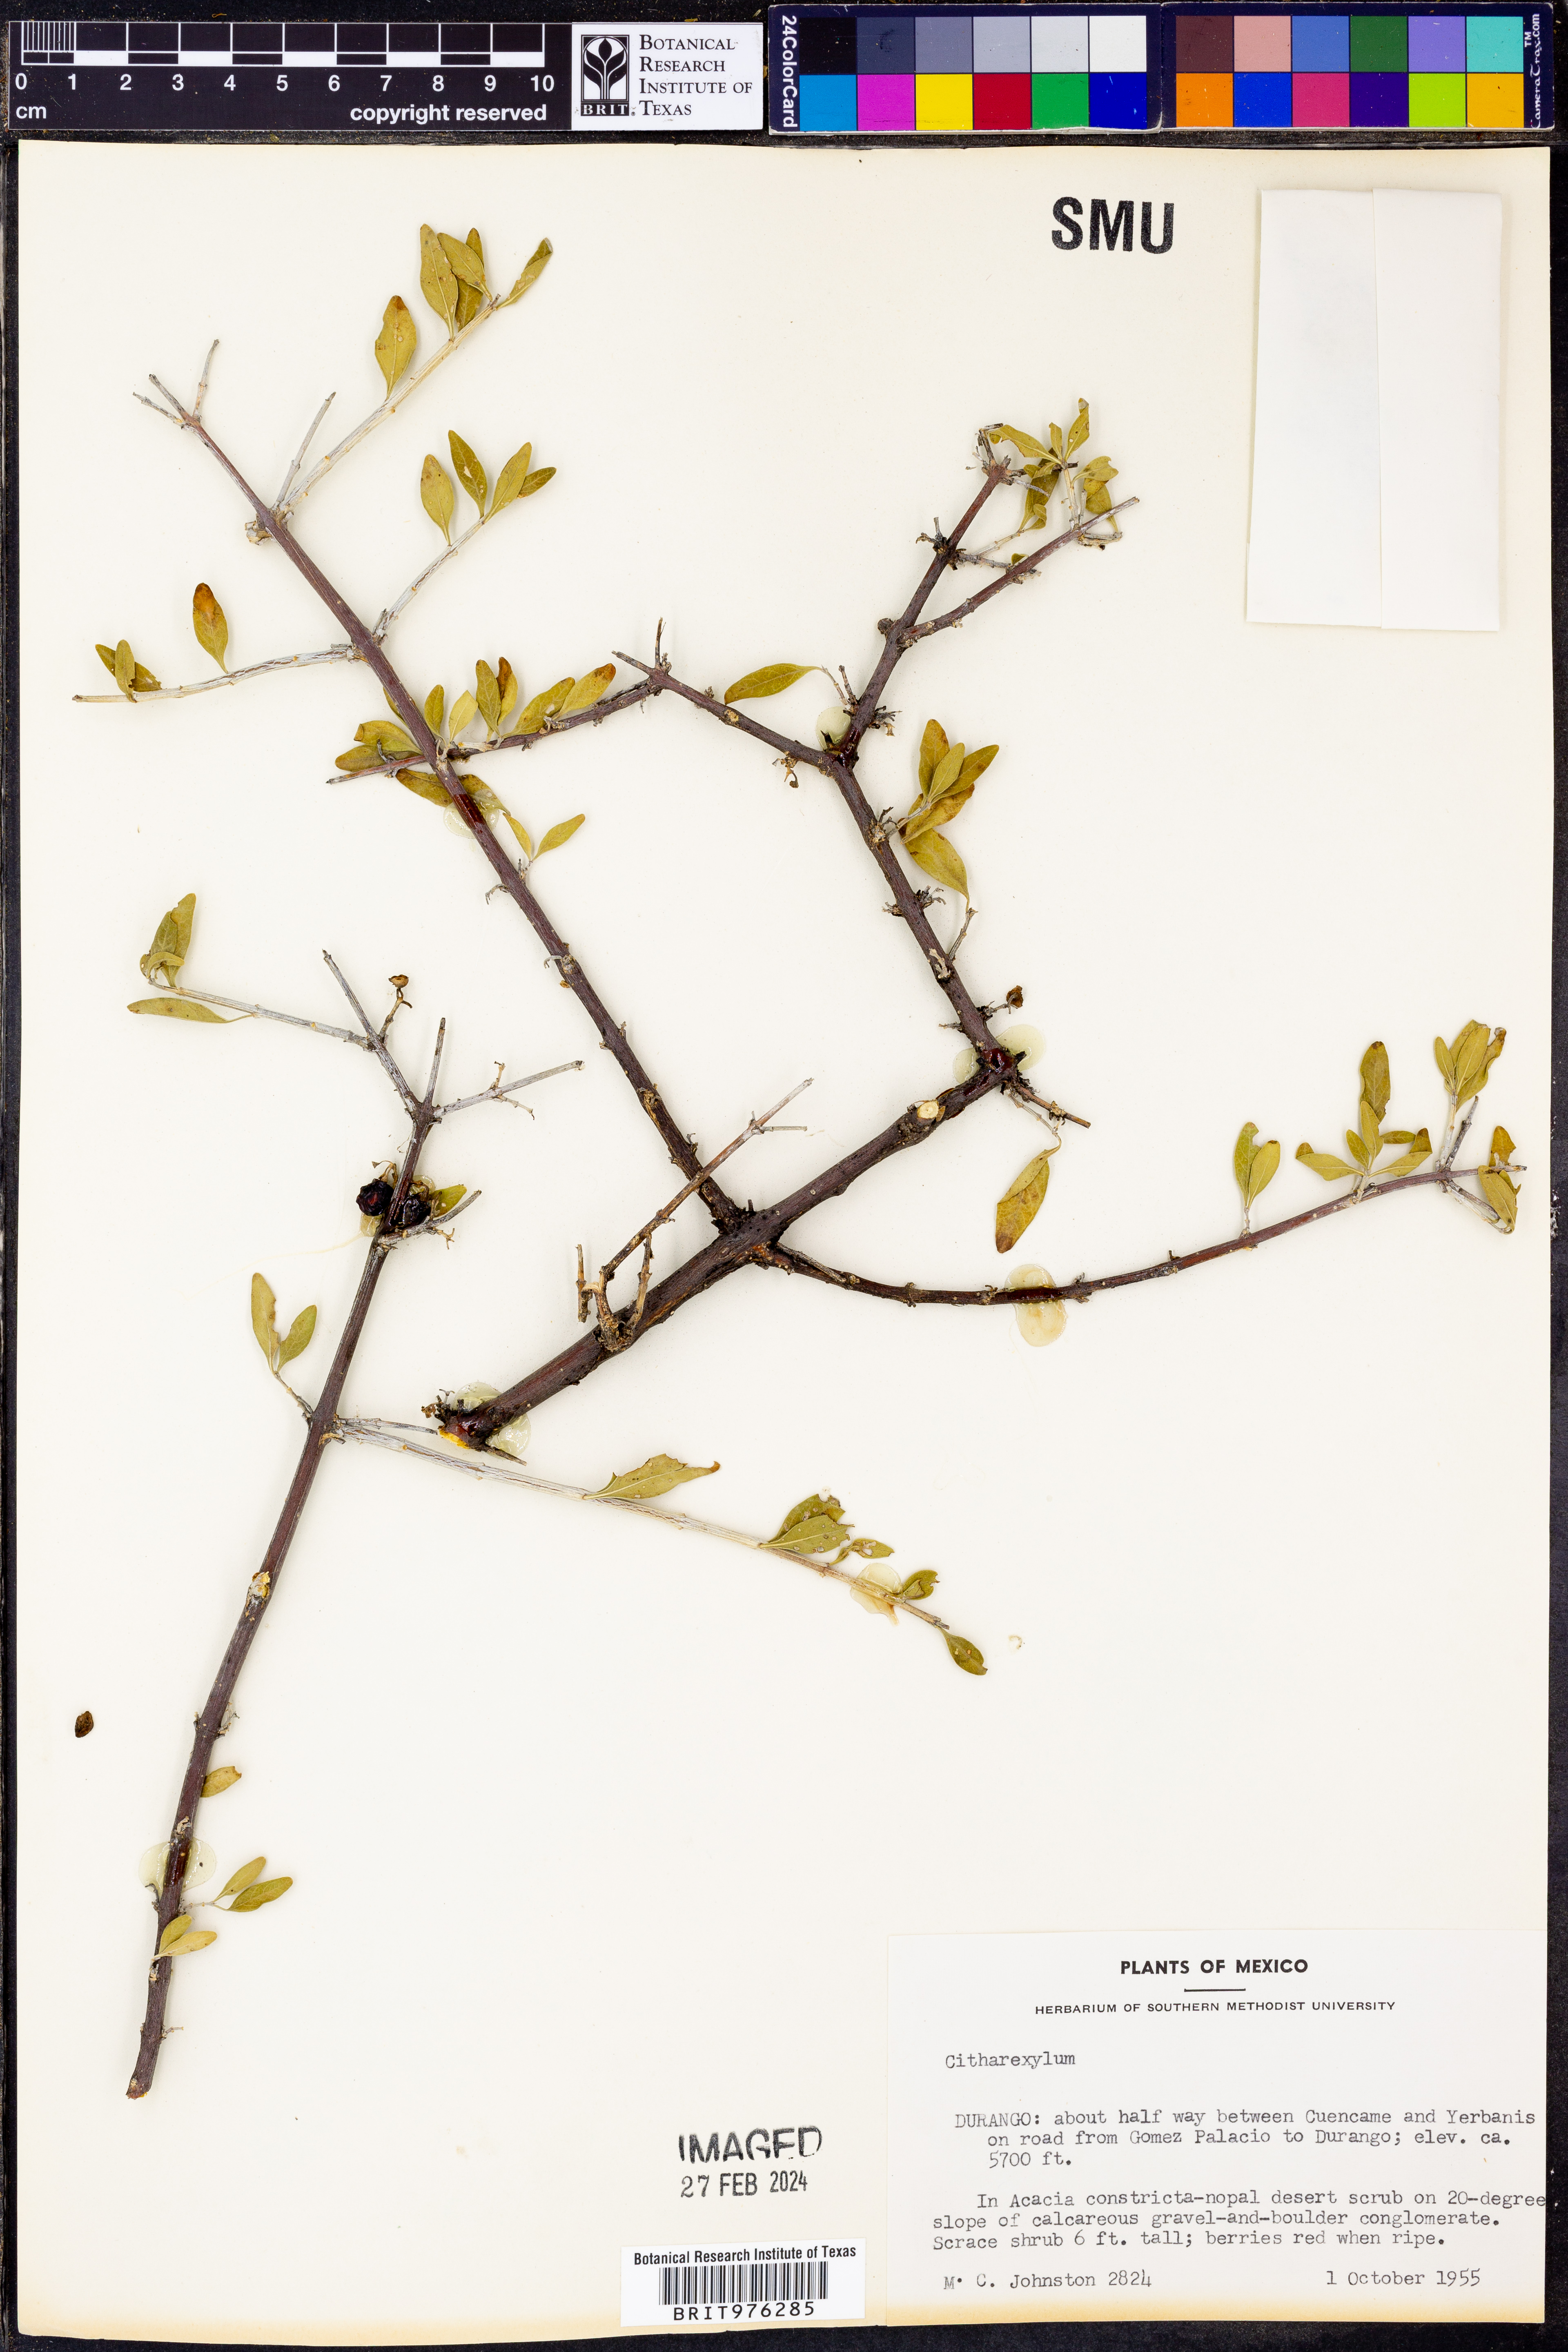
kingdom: Plantae
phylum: Tracheophyta
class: Magnoliopsida
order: Lamiales
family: Verbenaceae
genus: Citharexylum
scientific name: Citharexylum
